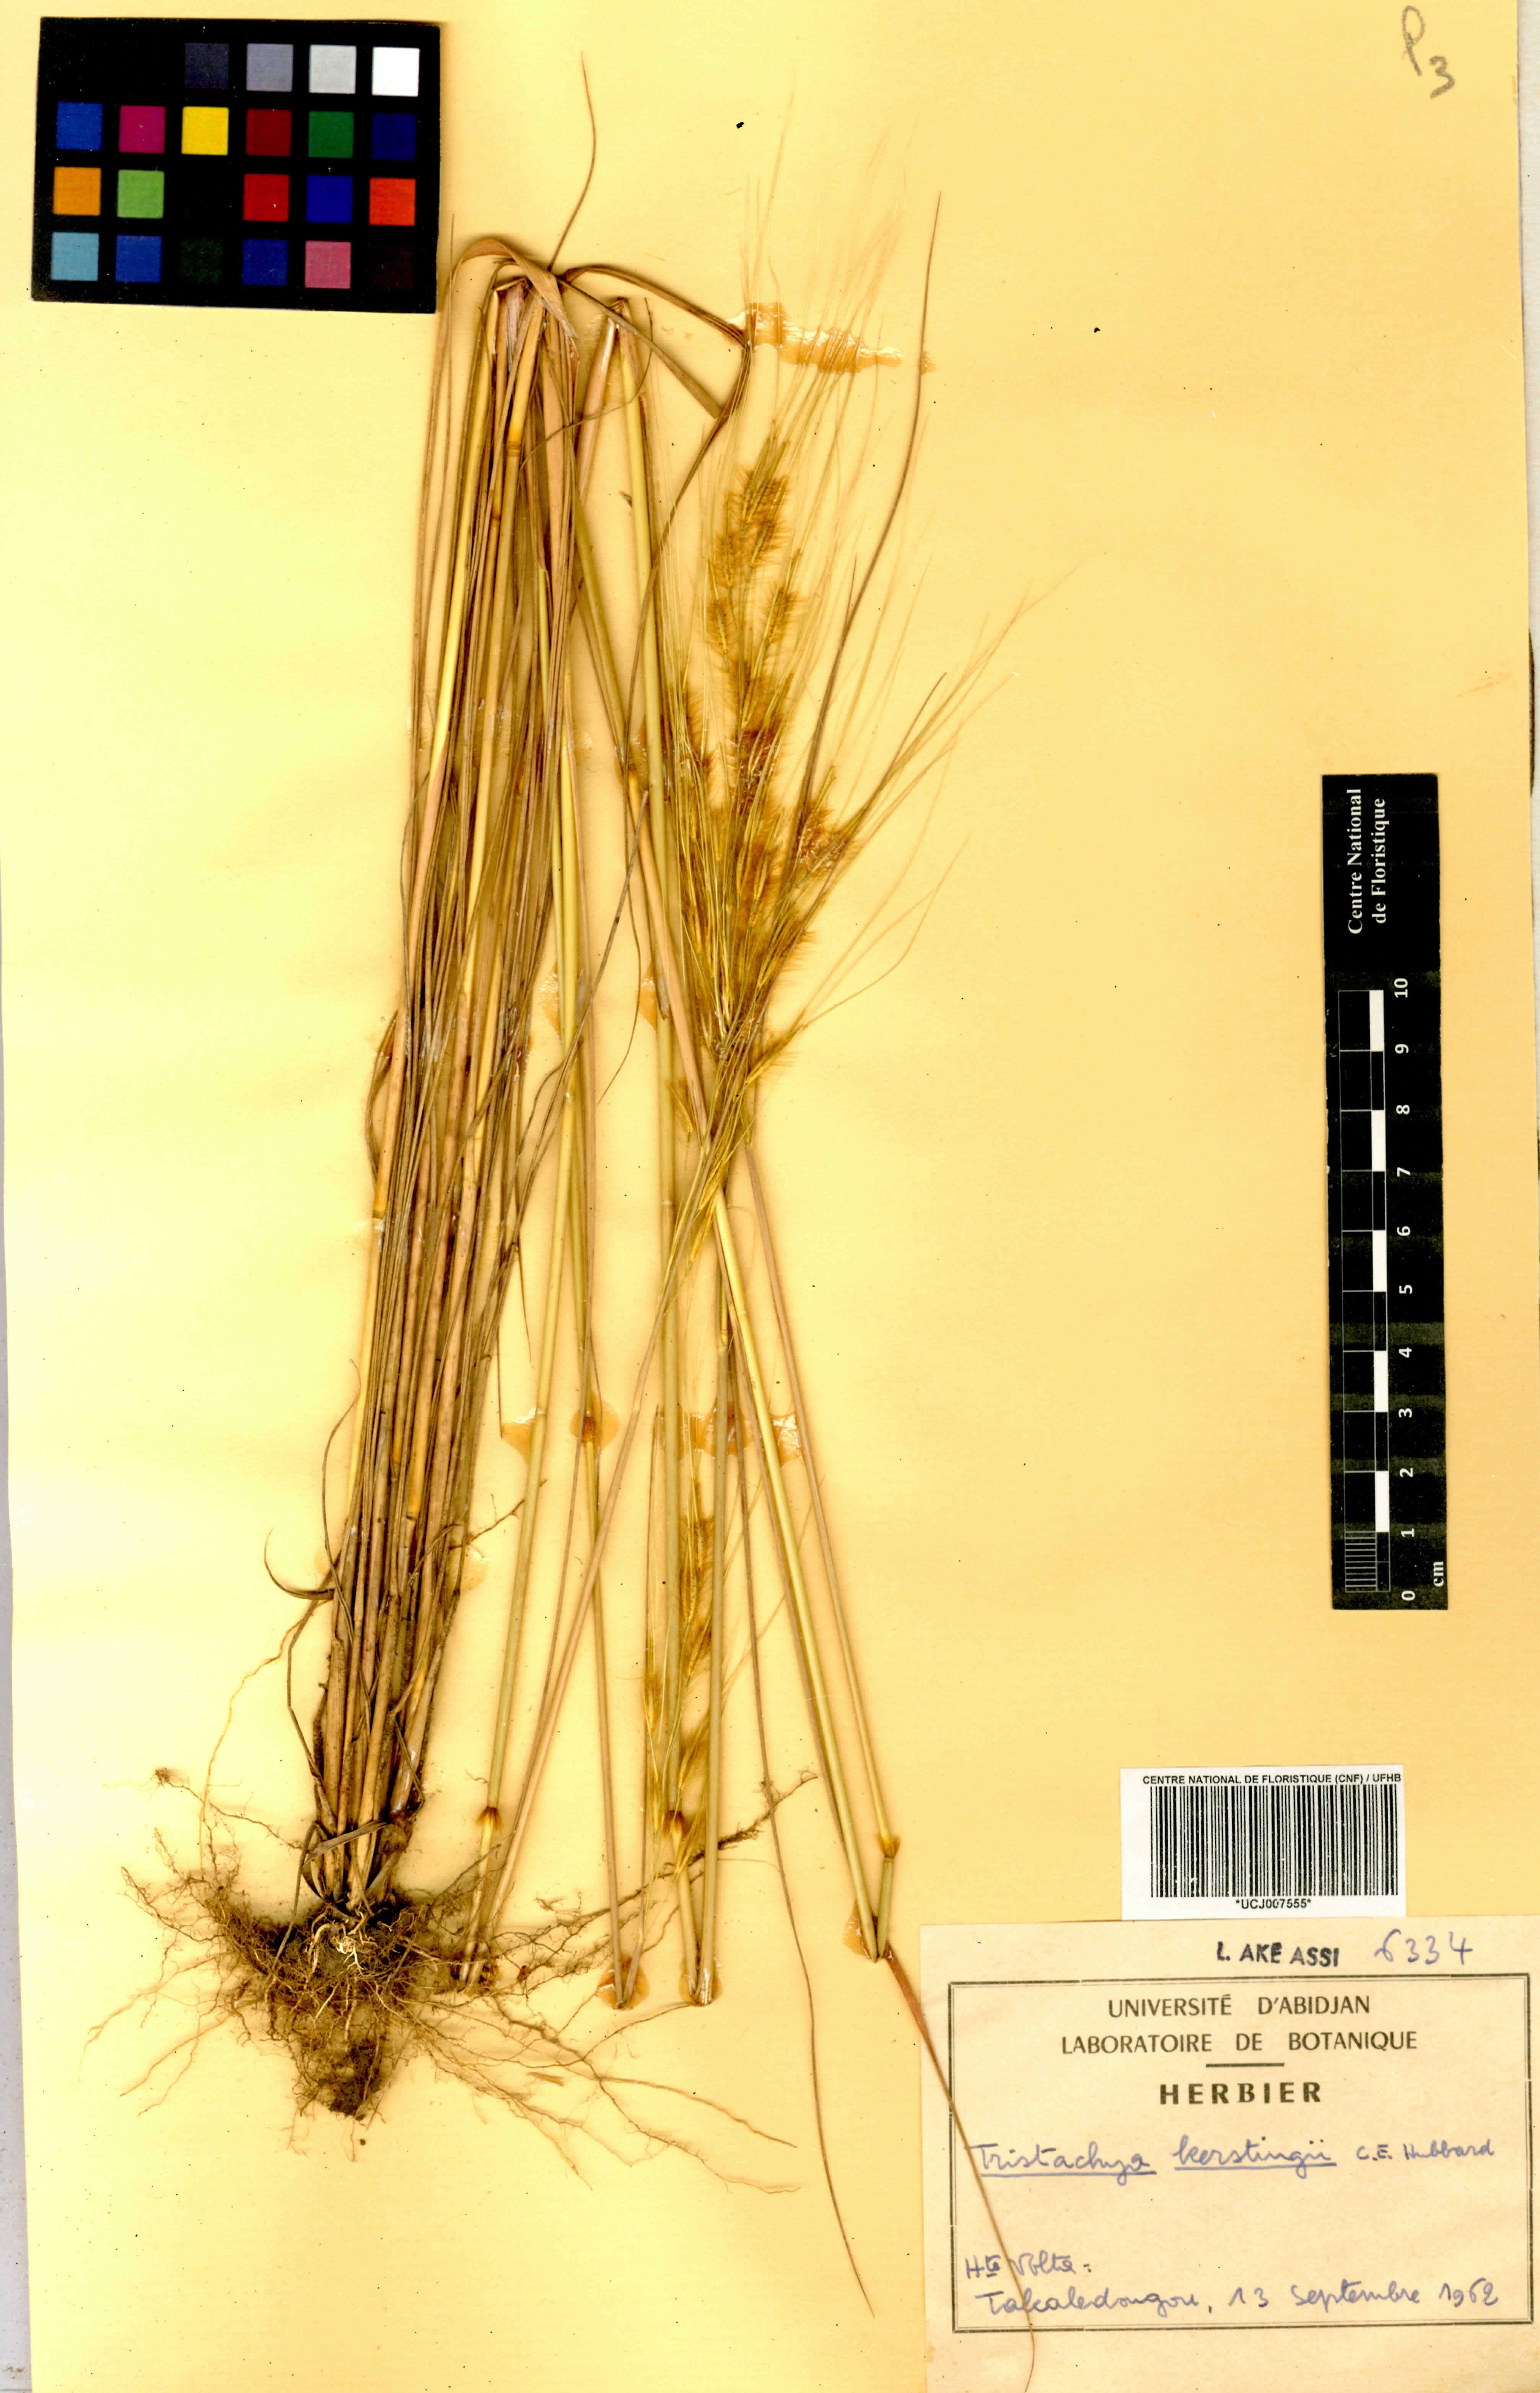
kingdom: Plantae
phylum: Tracheophyta
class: Liliopsida
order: Poales
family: Poaceae
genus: Loudetiopsis
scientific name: Loudetiopsis kerstingii
